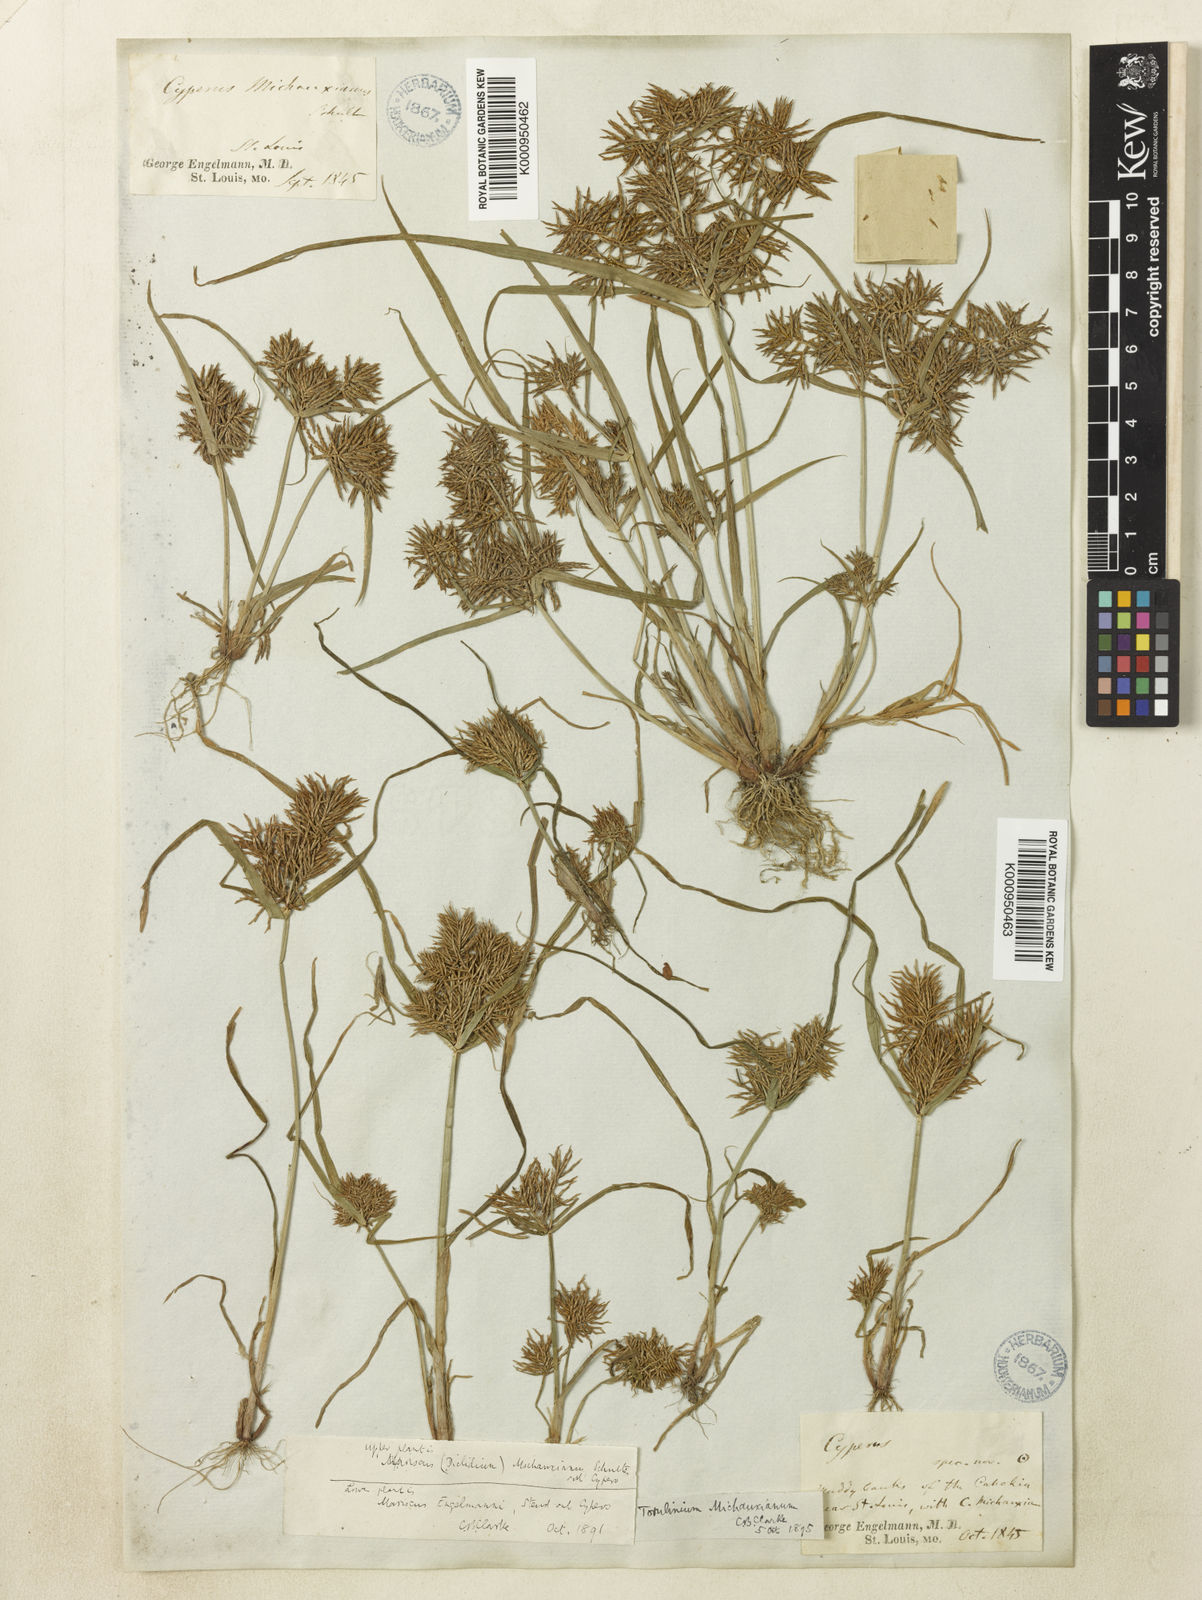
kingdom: Plantae
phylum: Tracheophyta
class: Liliopsida
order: Poales
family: Cyperaceae
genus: Cyperus
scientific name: Cyperus odoratus
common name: Fragrant flatsedge
